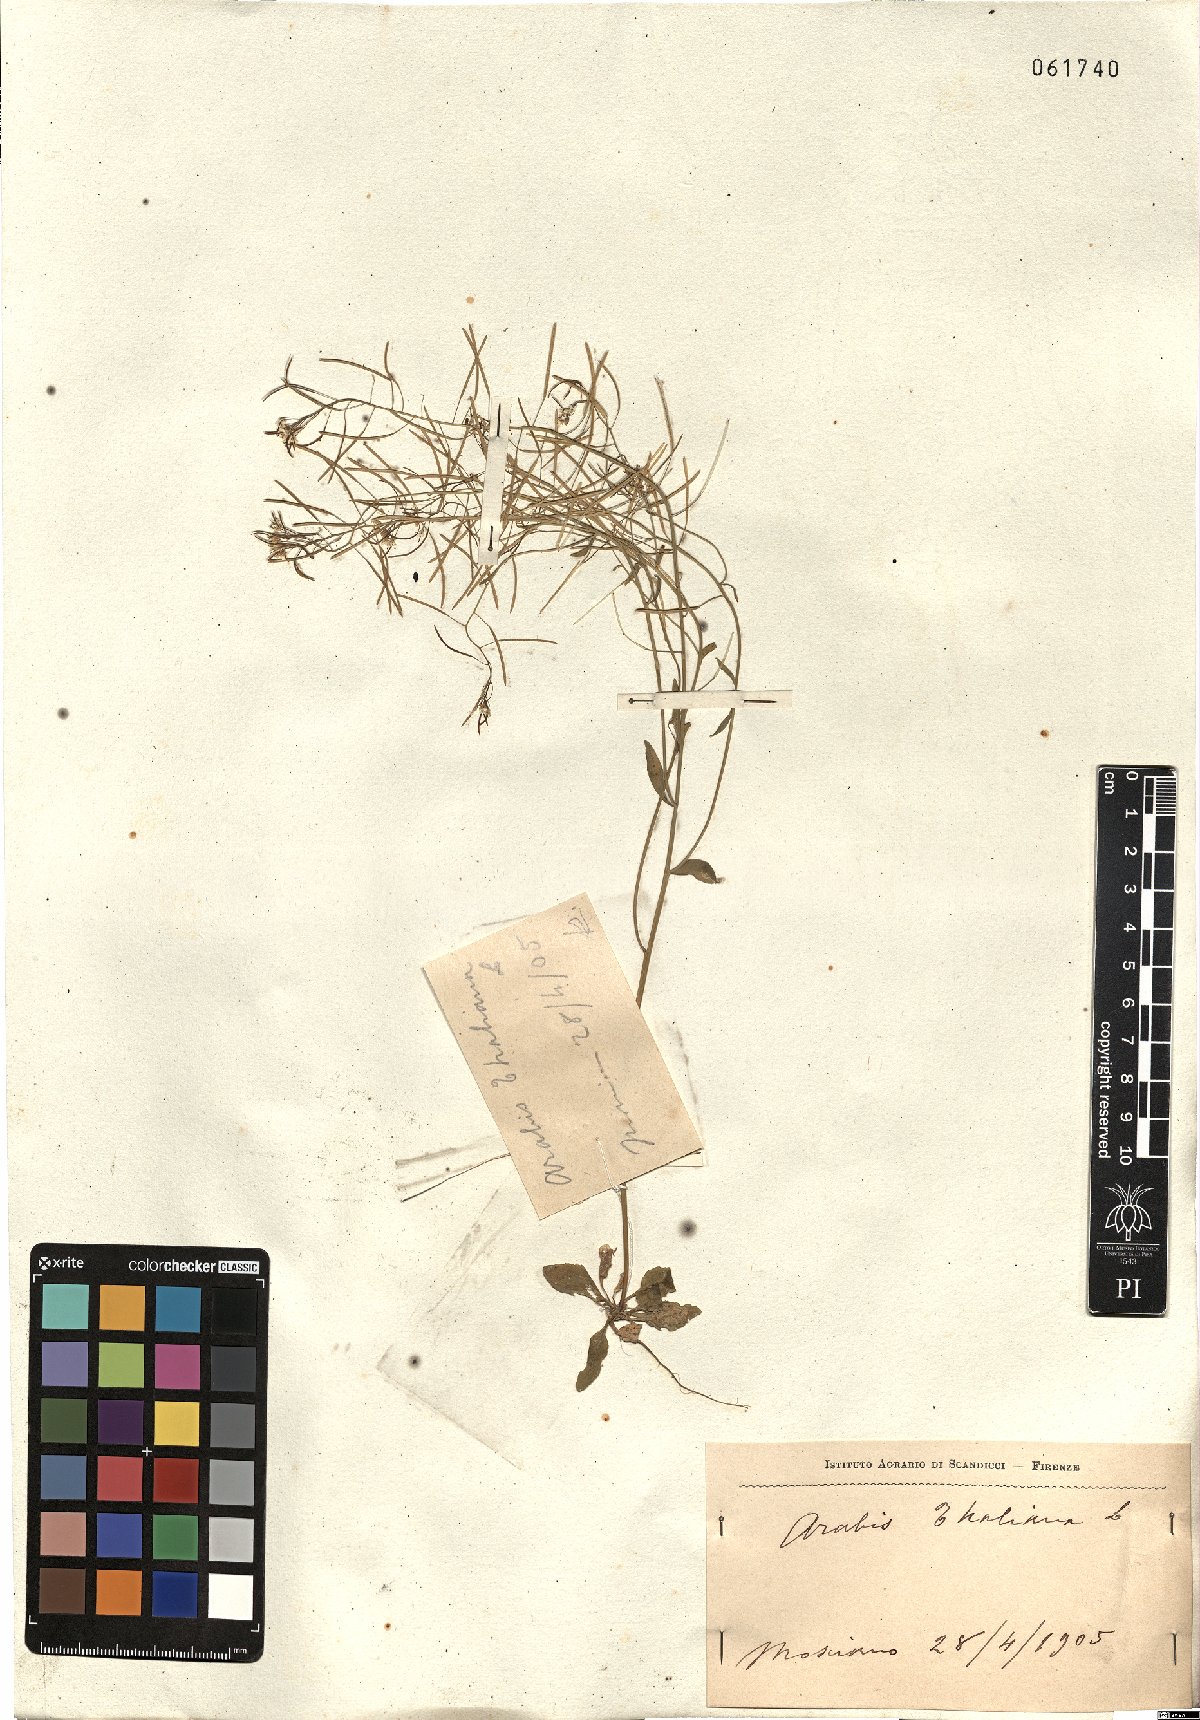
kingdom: Plantae
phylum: Tracheophyta
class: Magnoliopsida
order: Brassicales
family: Brassicaceae
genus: Arabidopsis
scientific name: Arabidopsis thaliana
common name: Thale cress
